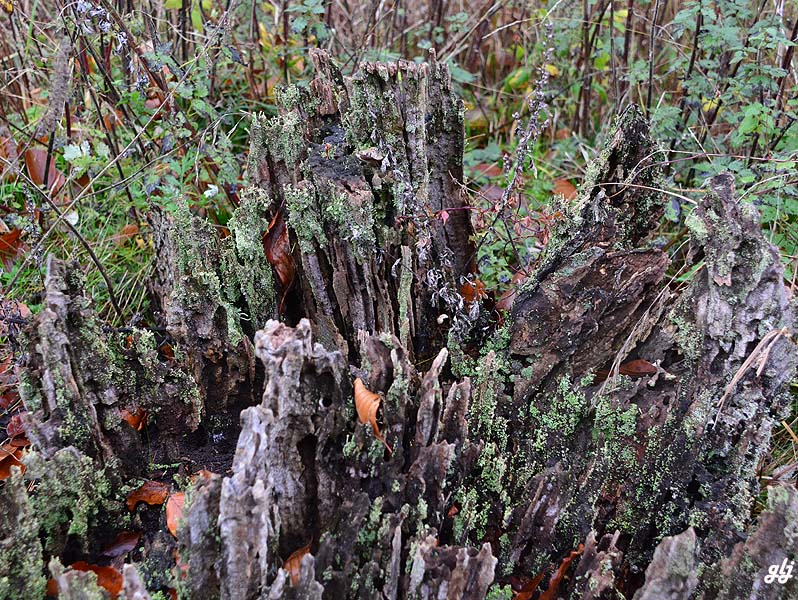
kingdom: Fungi
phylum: Ascomycota
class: Lecanoromycetes
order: Lecanorales
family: Cladoniaceae
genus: Cladonia
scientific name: Cladonia
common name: brungrøn bægerlav
